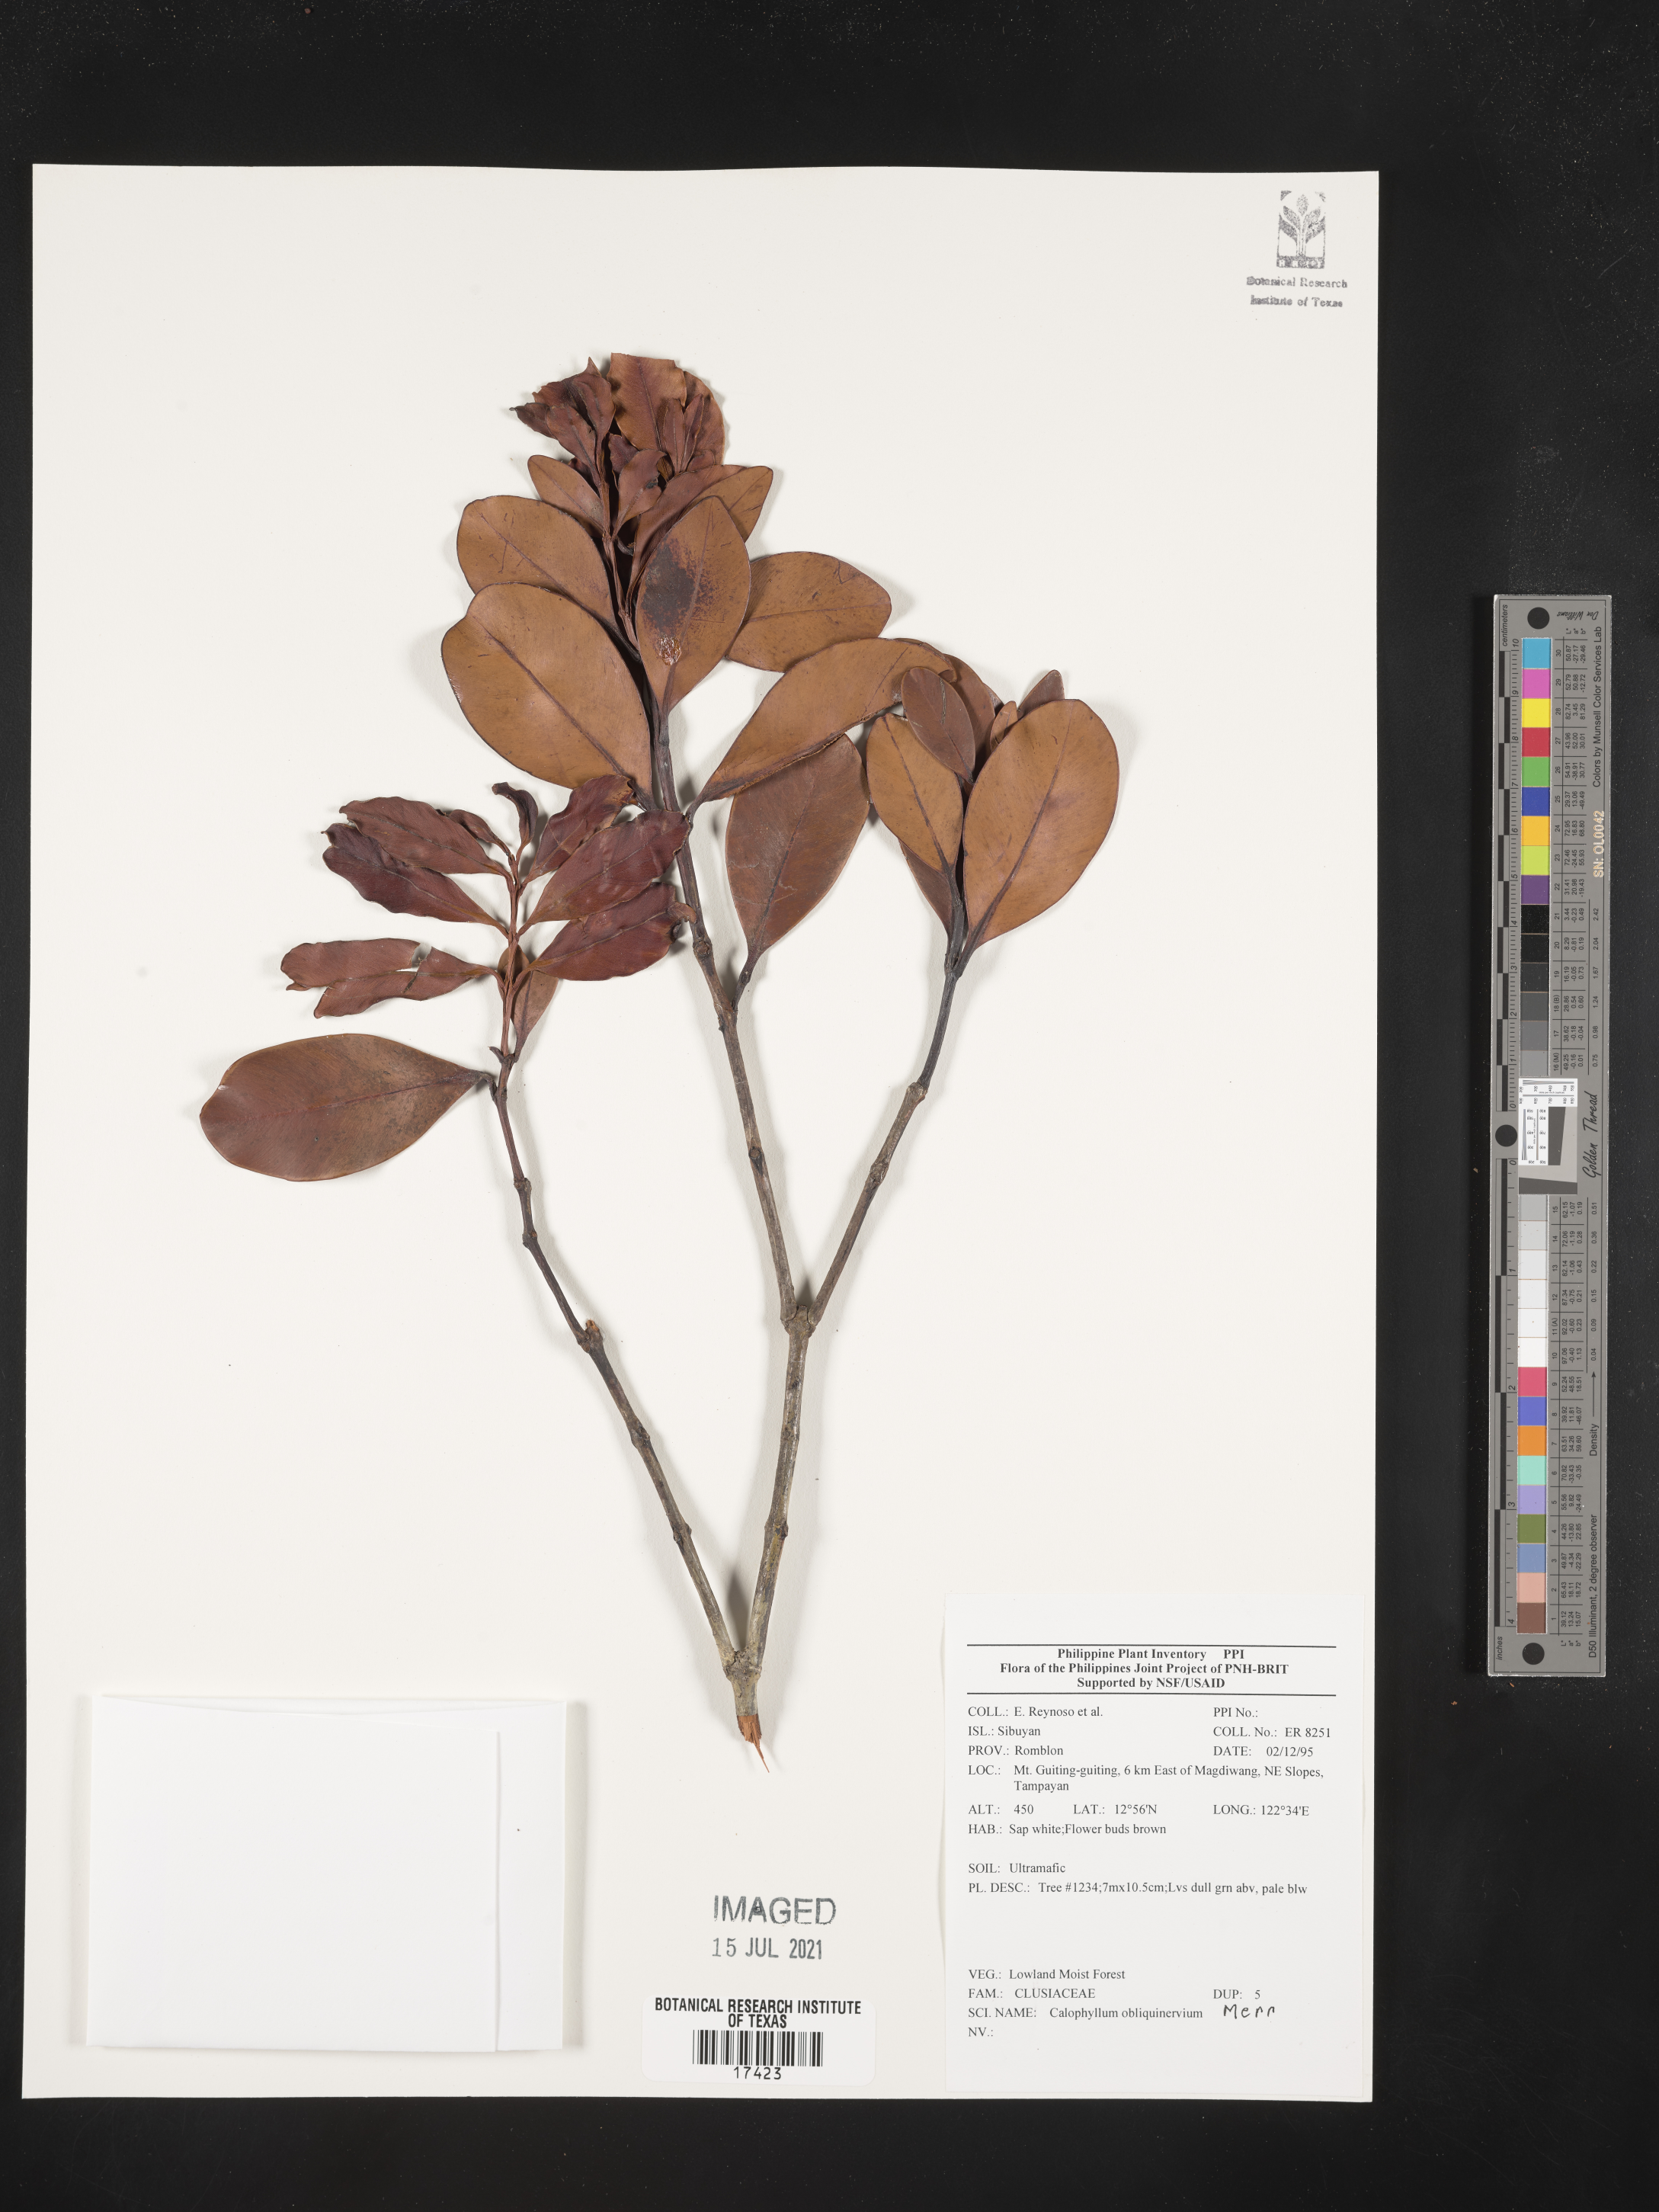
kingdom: Plantae
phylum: Tracheophyta
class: Magnoliopsida
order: Malpighiales
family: Calophyllaceae
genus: Calophyllum
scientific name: Calophyllum obliquinervium
